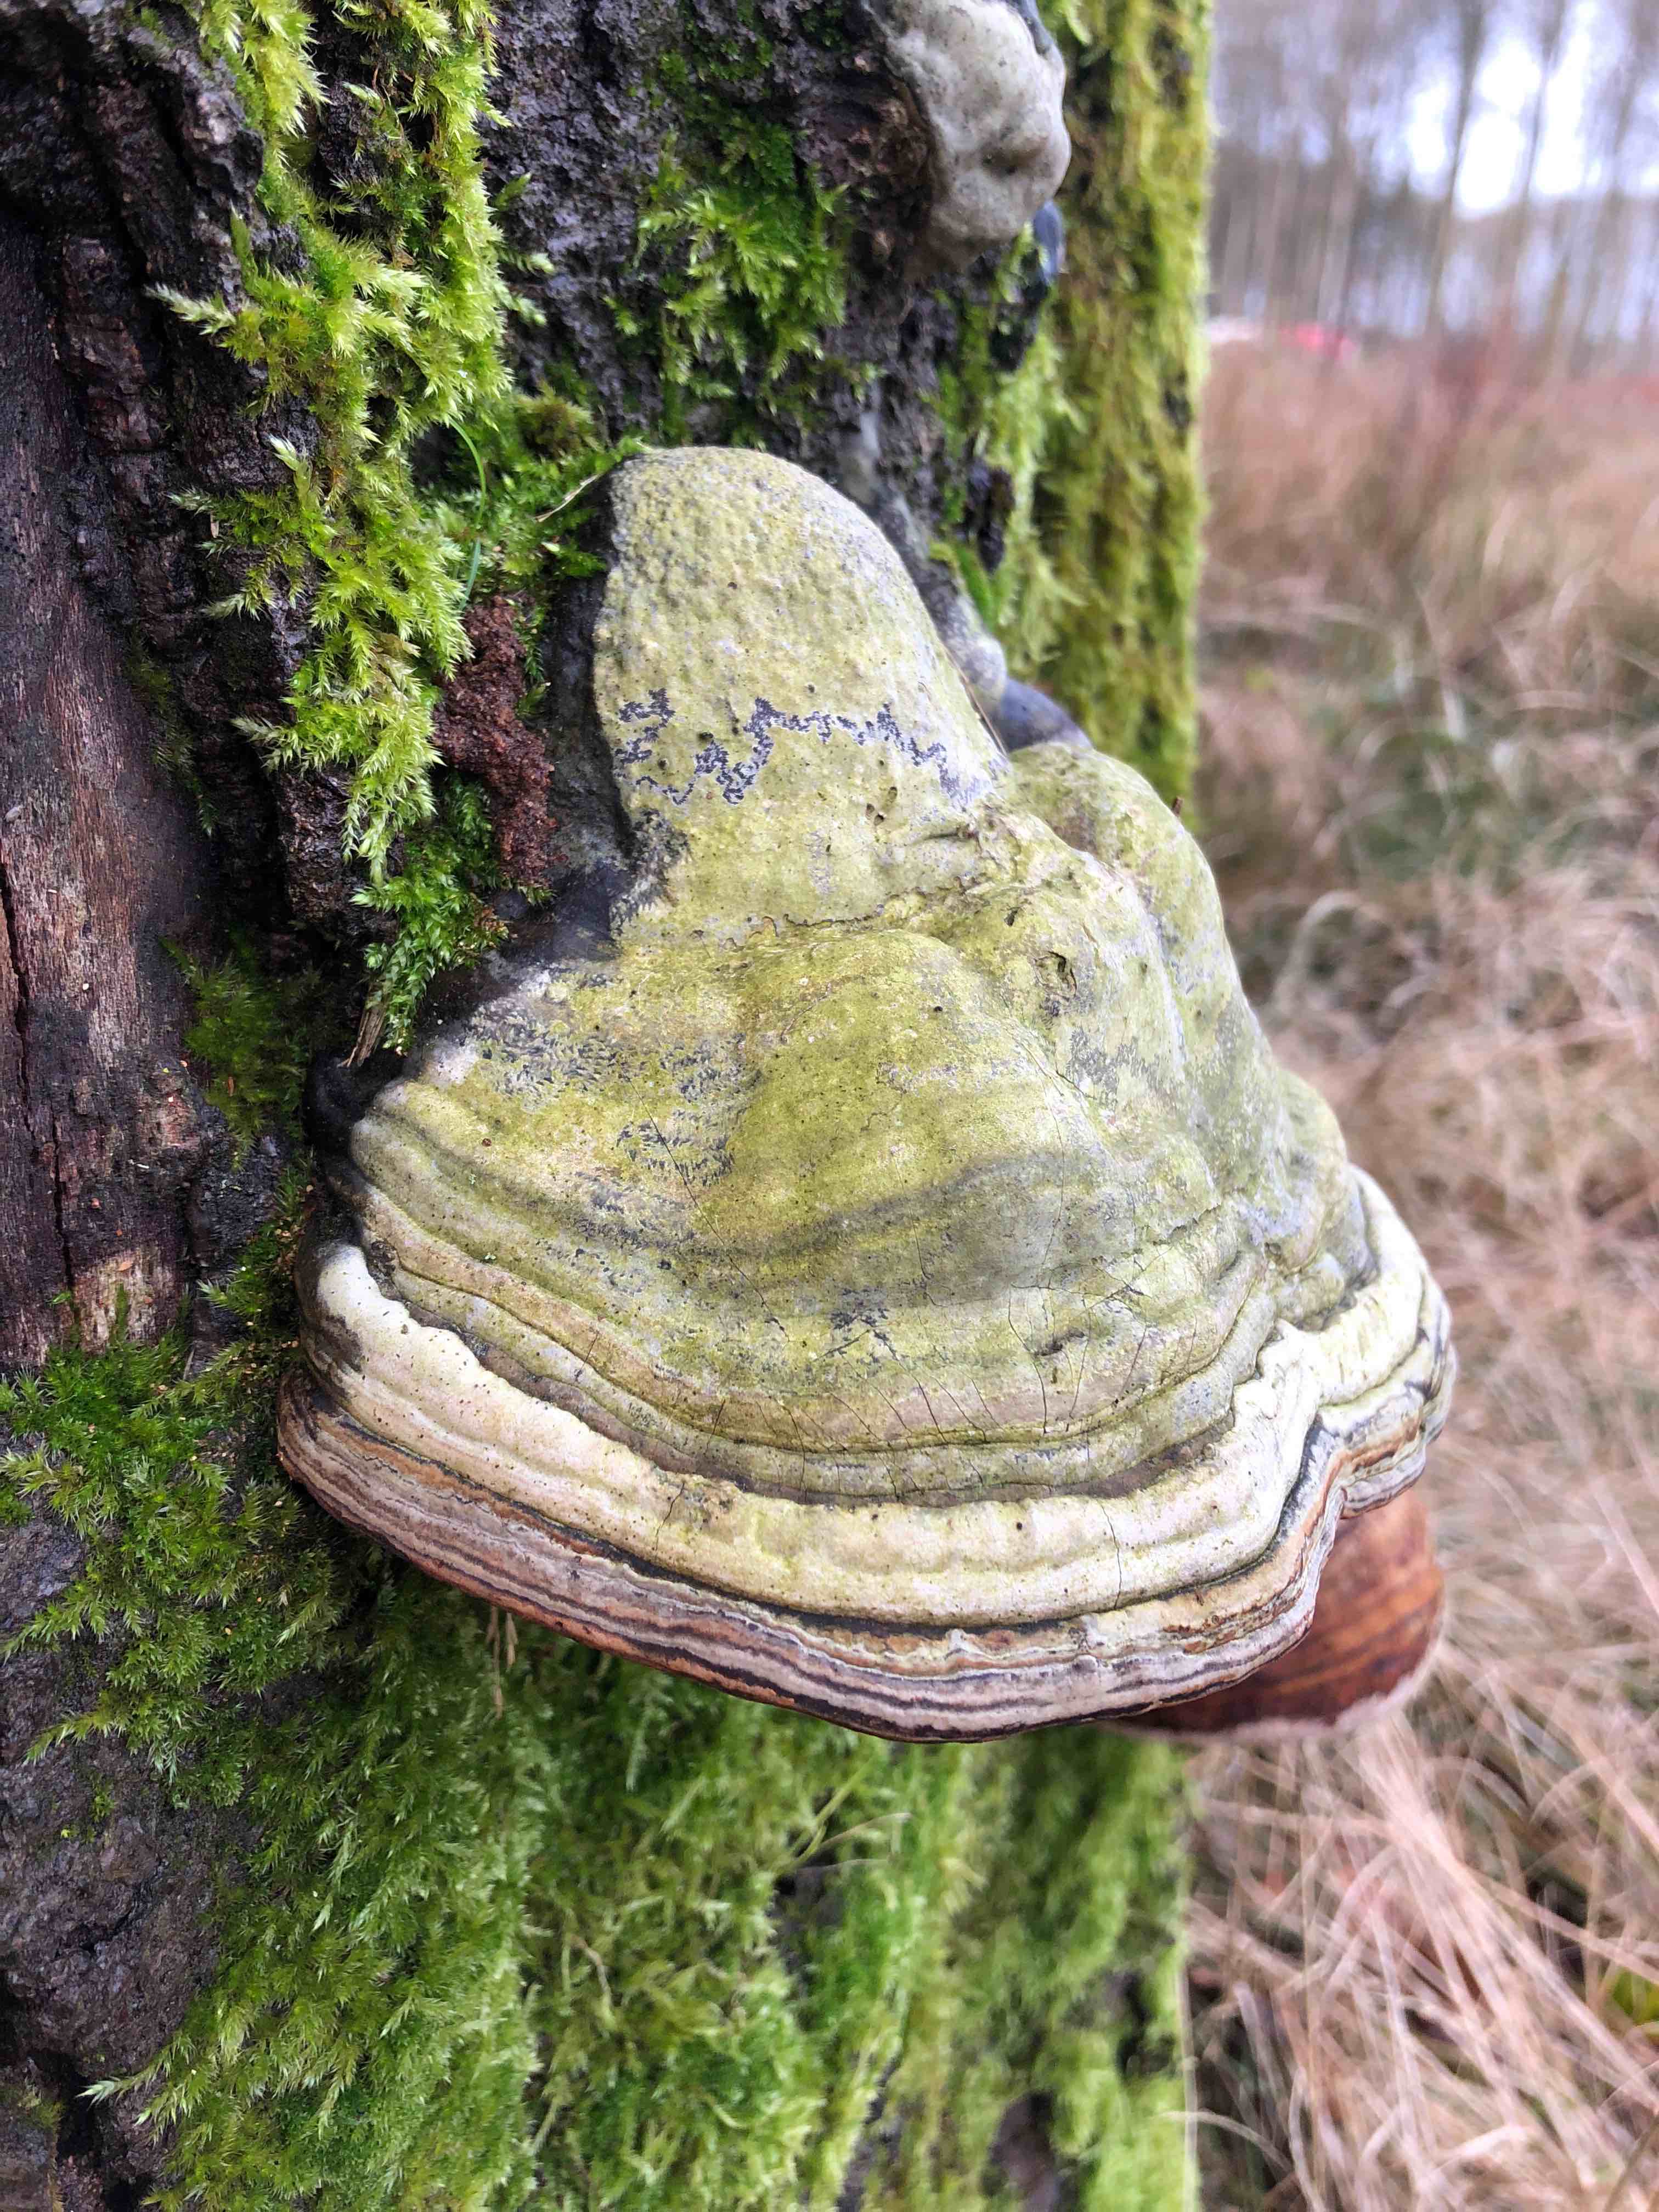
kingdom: Fungi
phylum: Basidiomycota
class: Agaricomycetes
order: Polyporales
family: Polyporaceae
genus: Fomes
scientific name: Fomes fomentarius
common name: tøndersvamp
